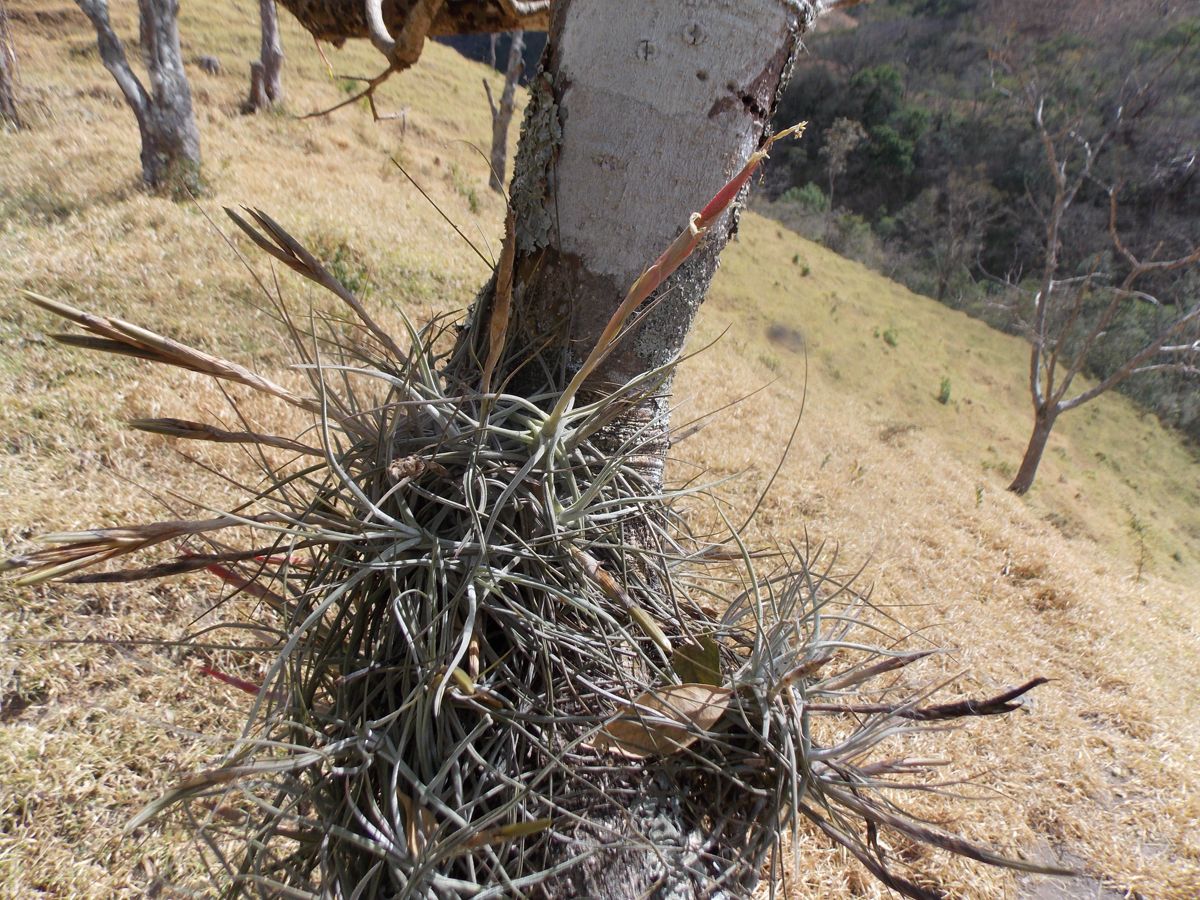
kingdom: Plantae
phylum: Tracheophyta
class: Liliopsida
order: Poales
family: Bromeliaceae
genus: Tillandsia
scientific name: Tillandsia schiedeana
